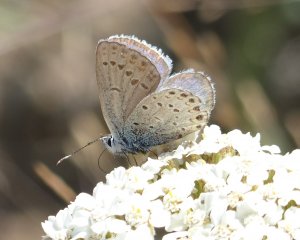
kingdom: Animalia
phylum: Arthropoda
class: Insecta
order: Lepidoptera
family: Lycaenidae
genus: Lycaeides
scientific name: Lycaeides idas
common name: Northern Blue
